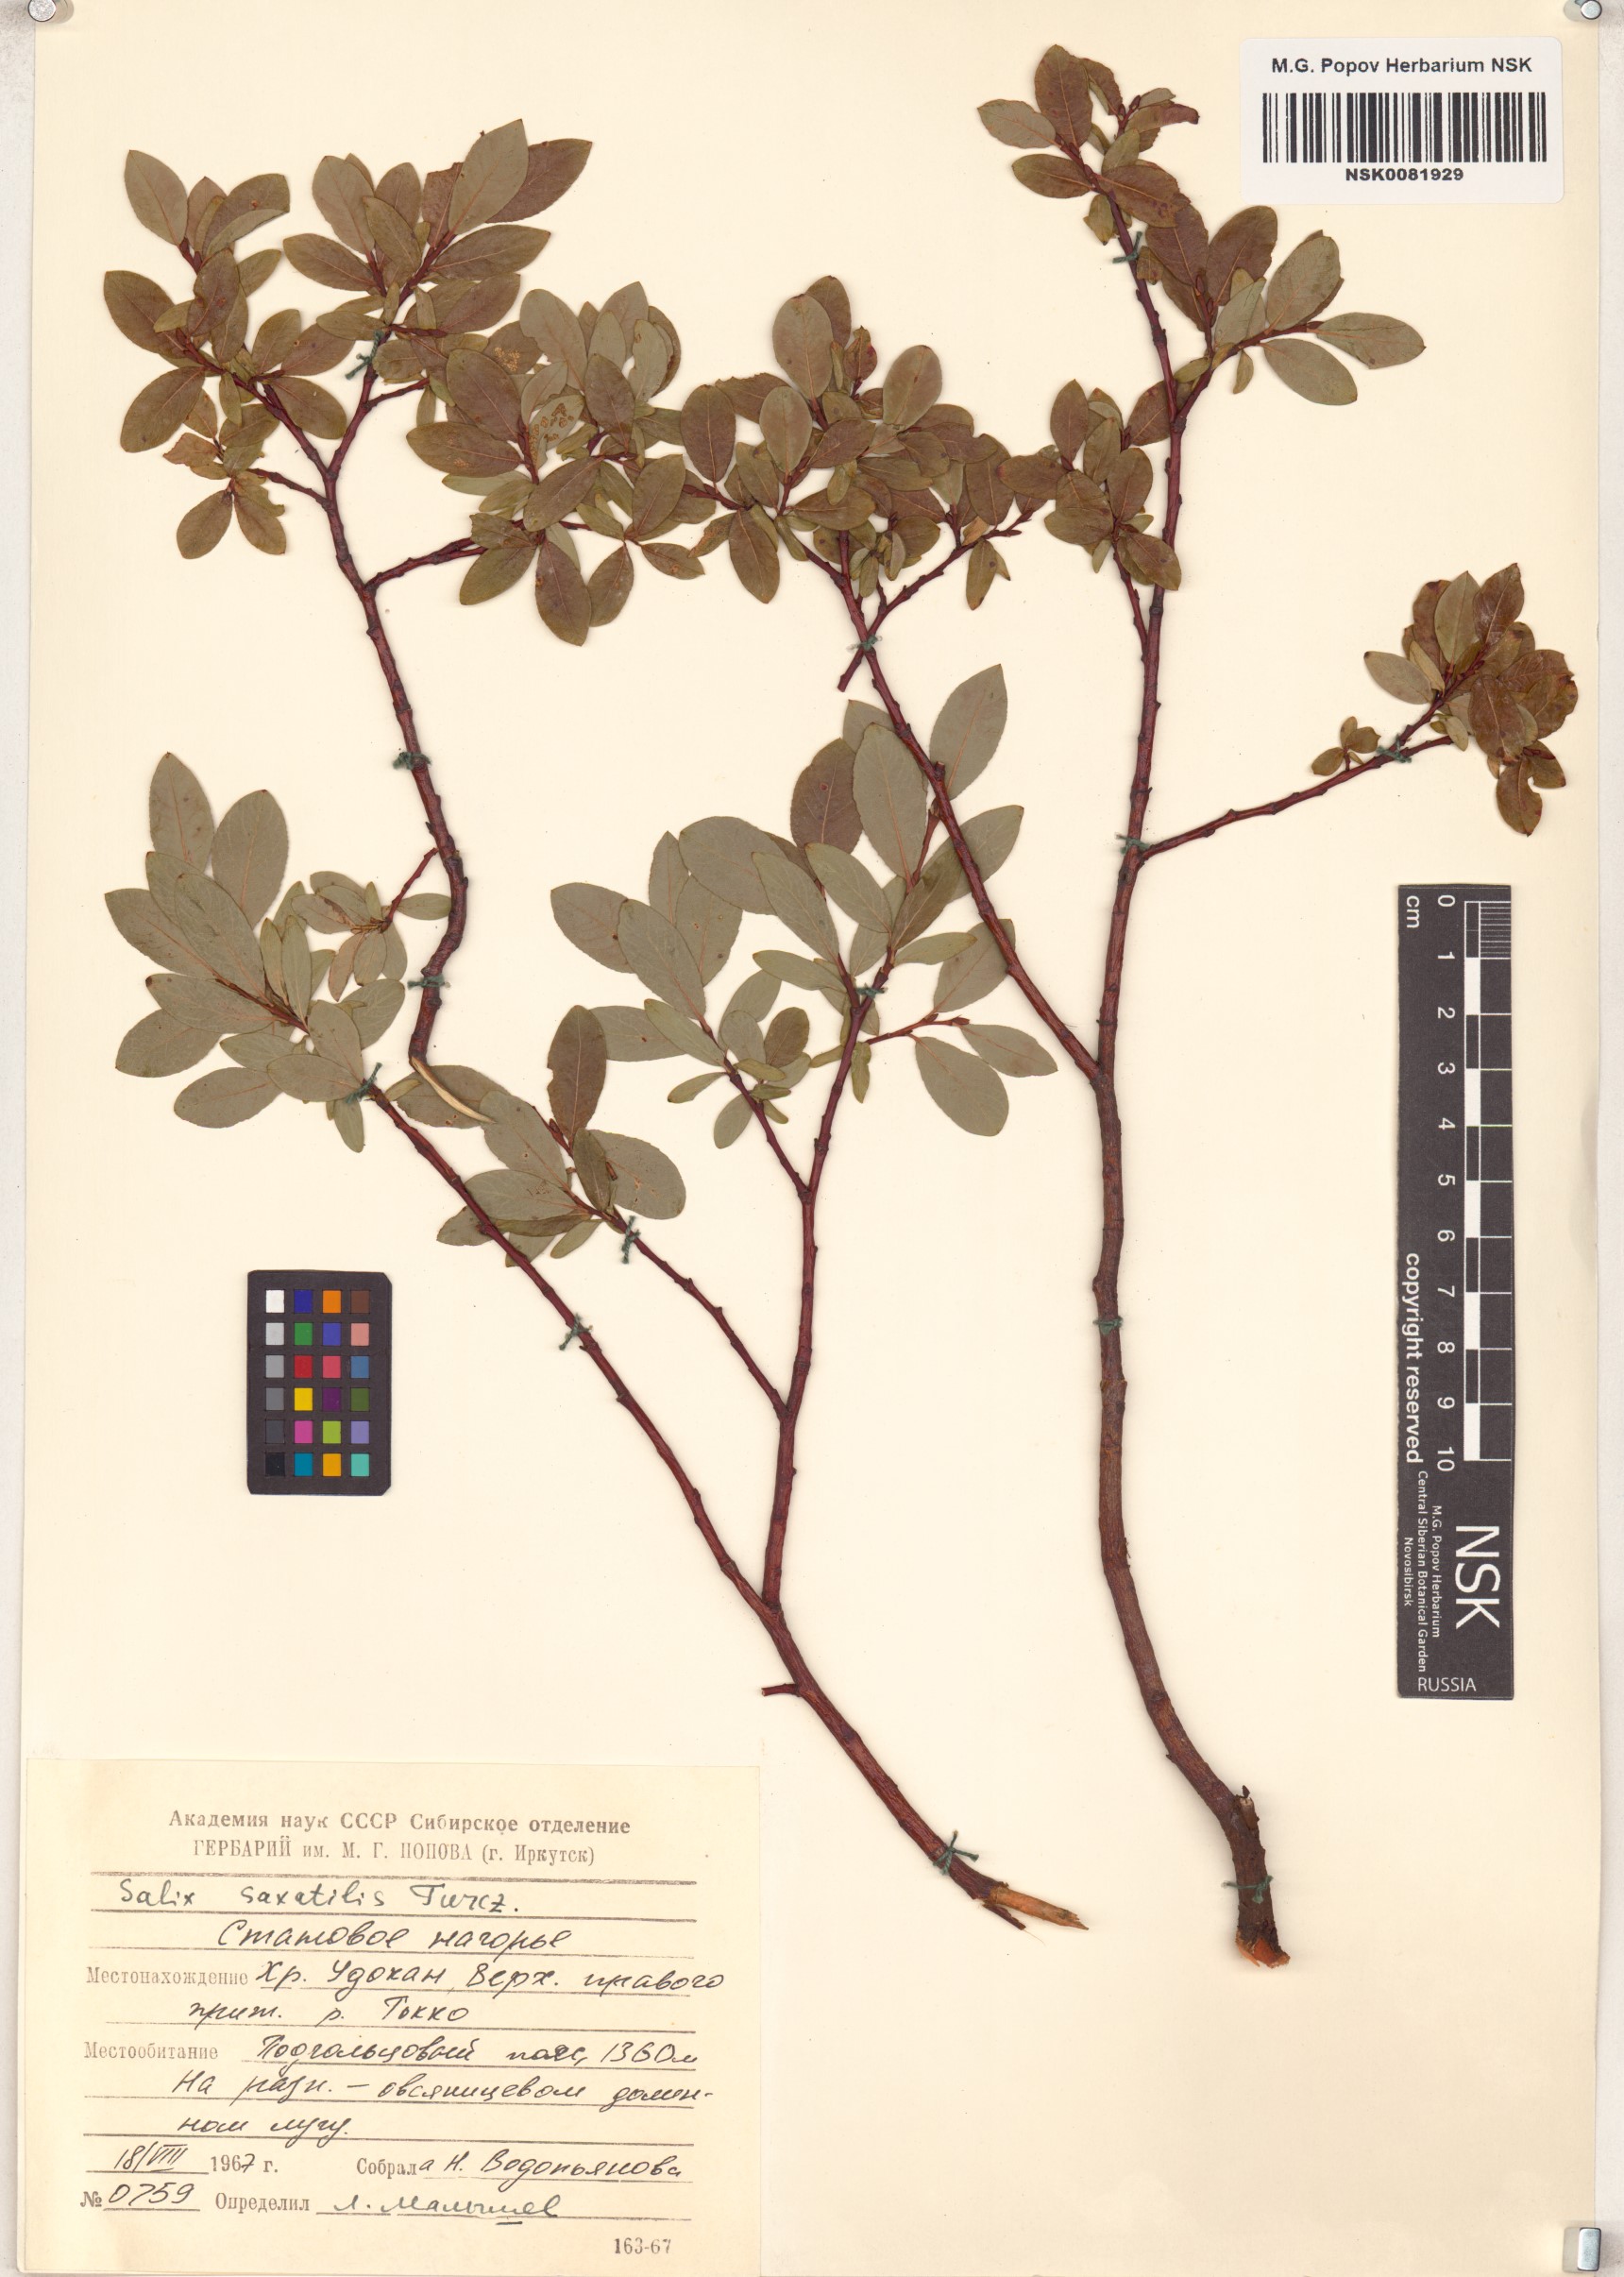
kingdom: Plantae
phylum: Tracheophyta
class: Magnoliopsida
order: Malpighiales
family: Salicaceae
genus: Salix
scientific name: Salix saxatilis
